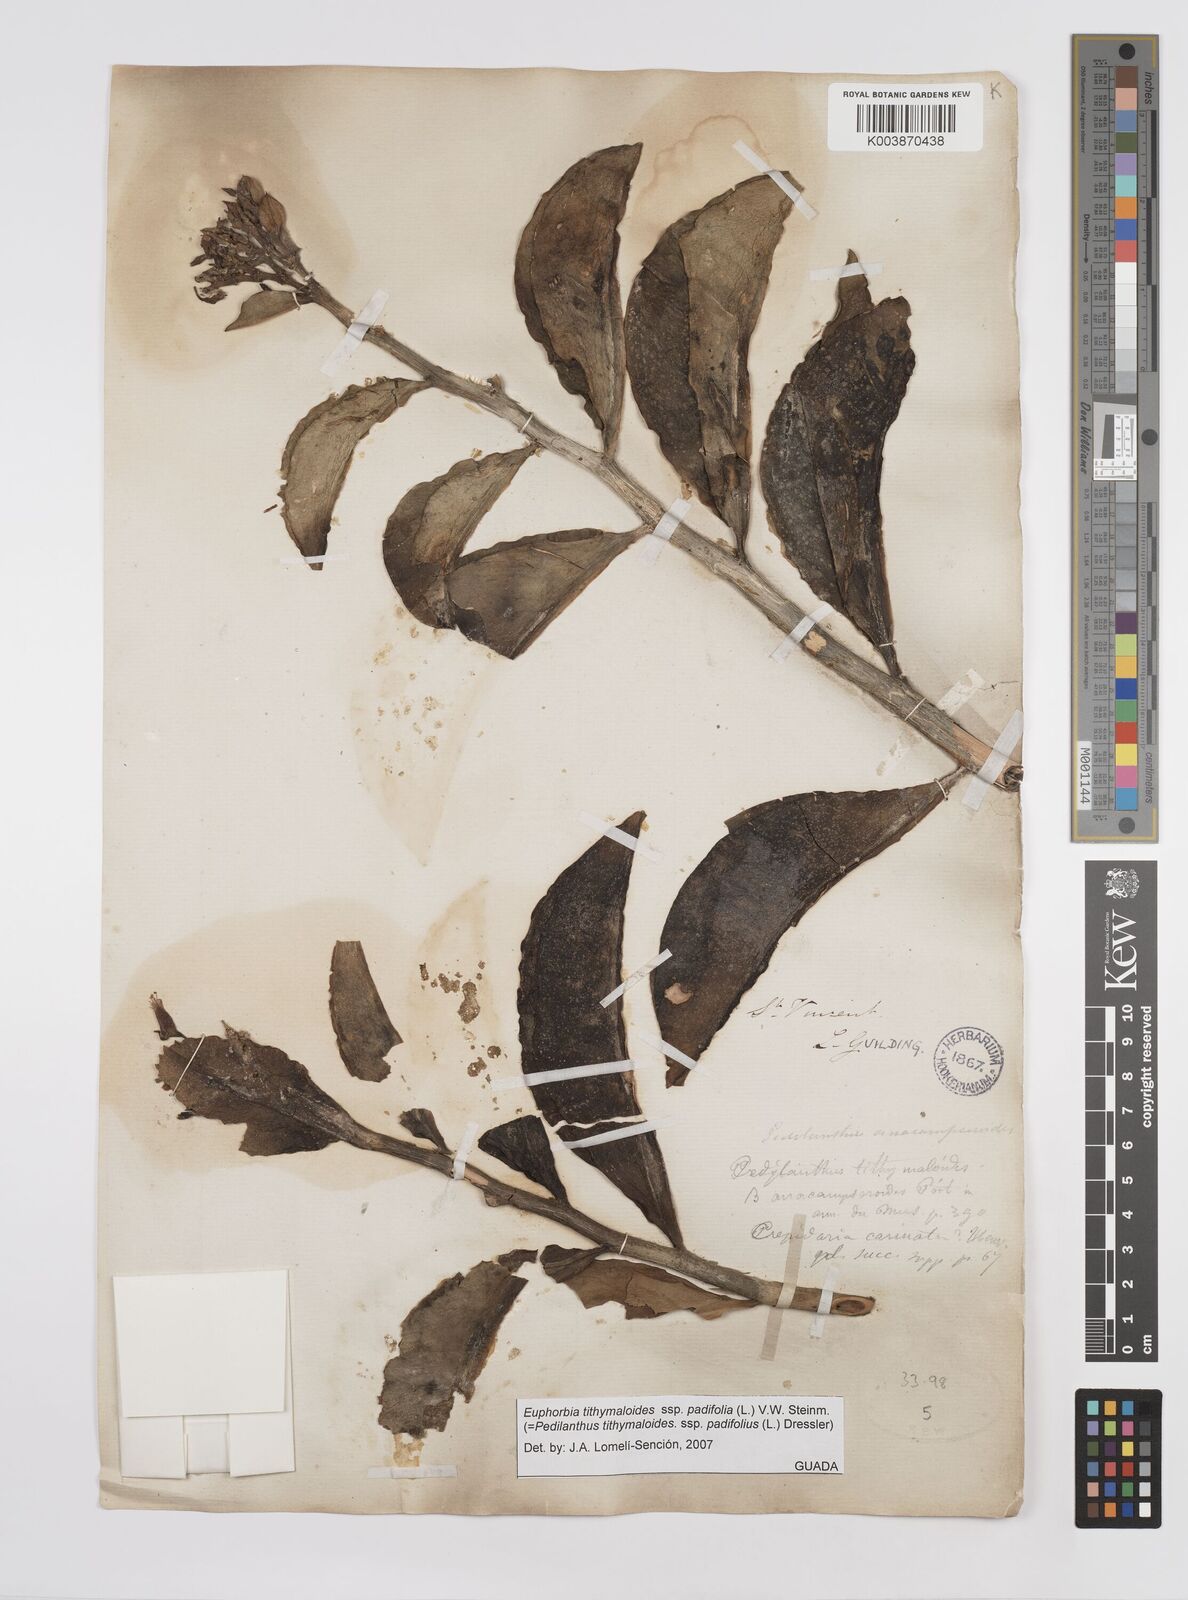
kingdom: Plantae
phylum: Tracheophyta
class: Magnoliopsida
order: Malpighiales
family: Euphorbiaceae
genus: Euphorbia
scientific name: Euphorbia tithymaloides
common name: Slipperplant
